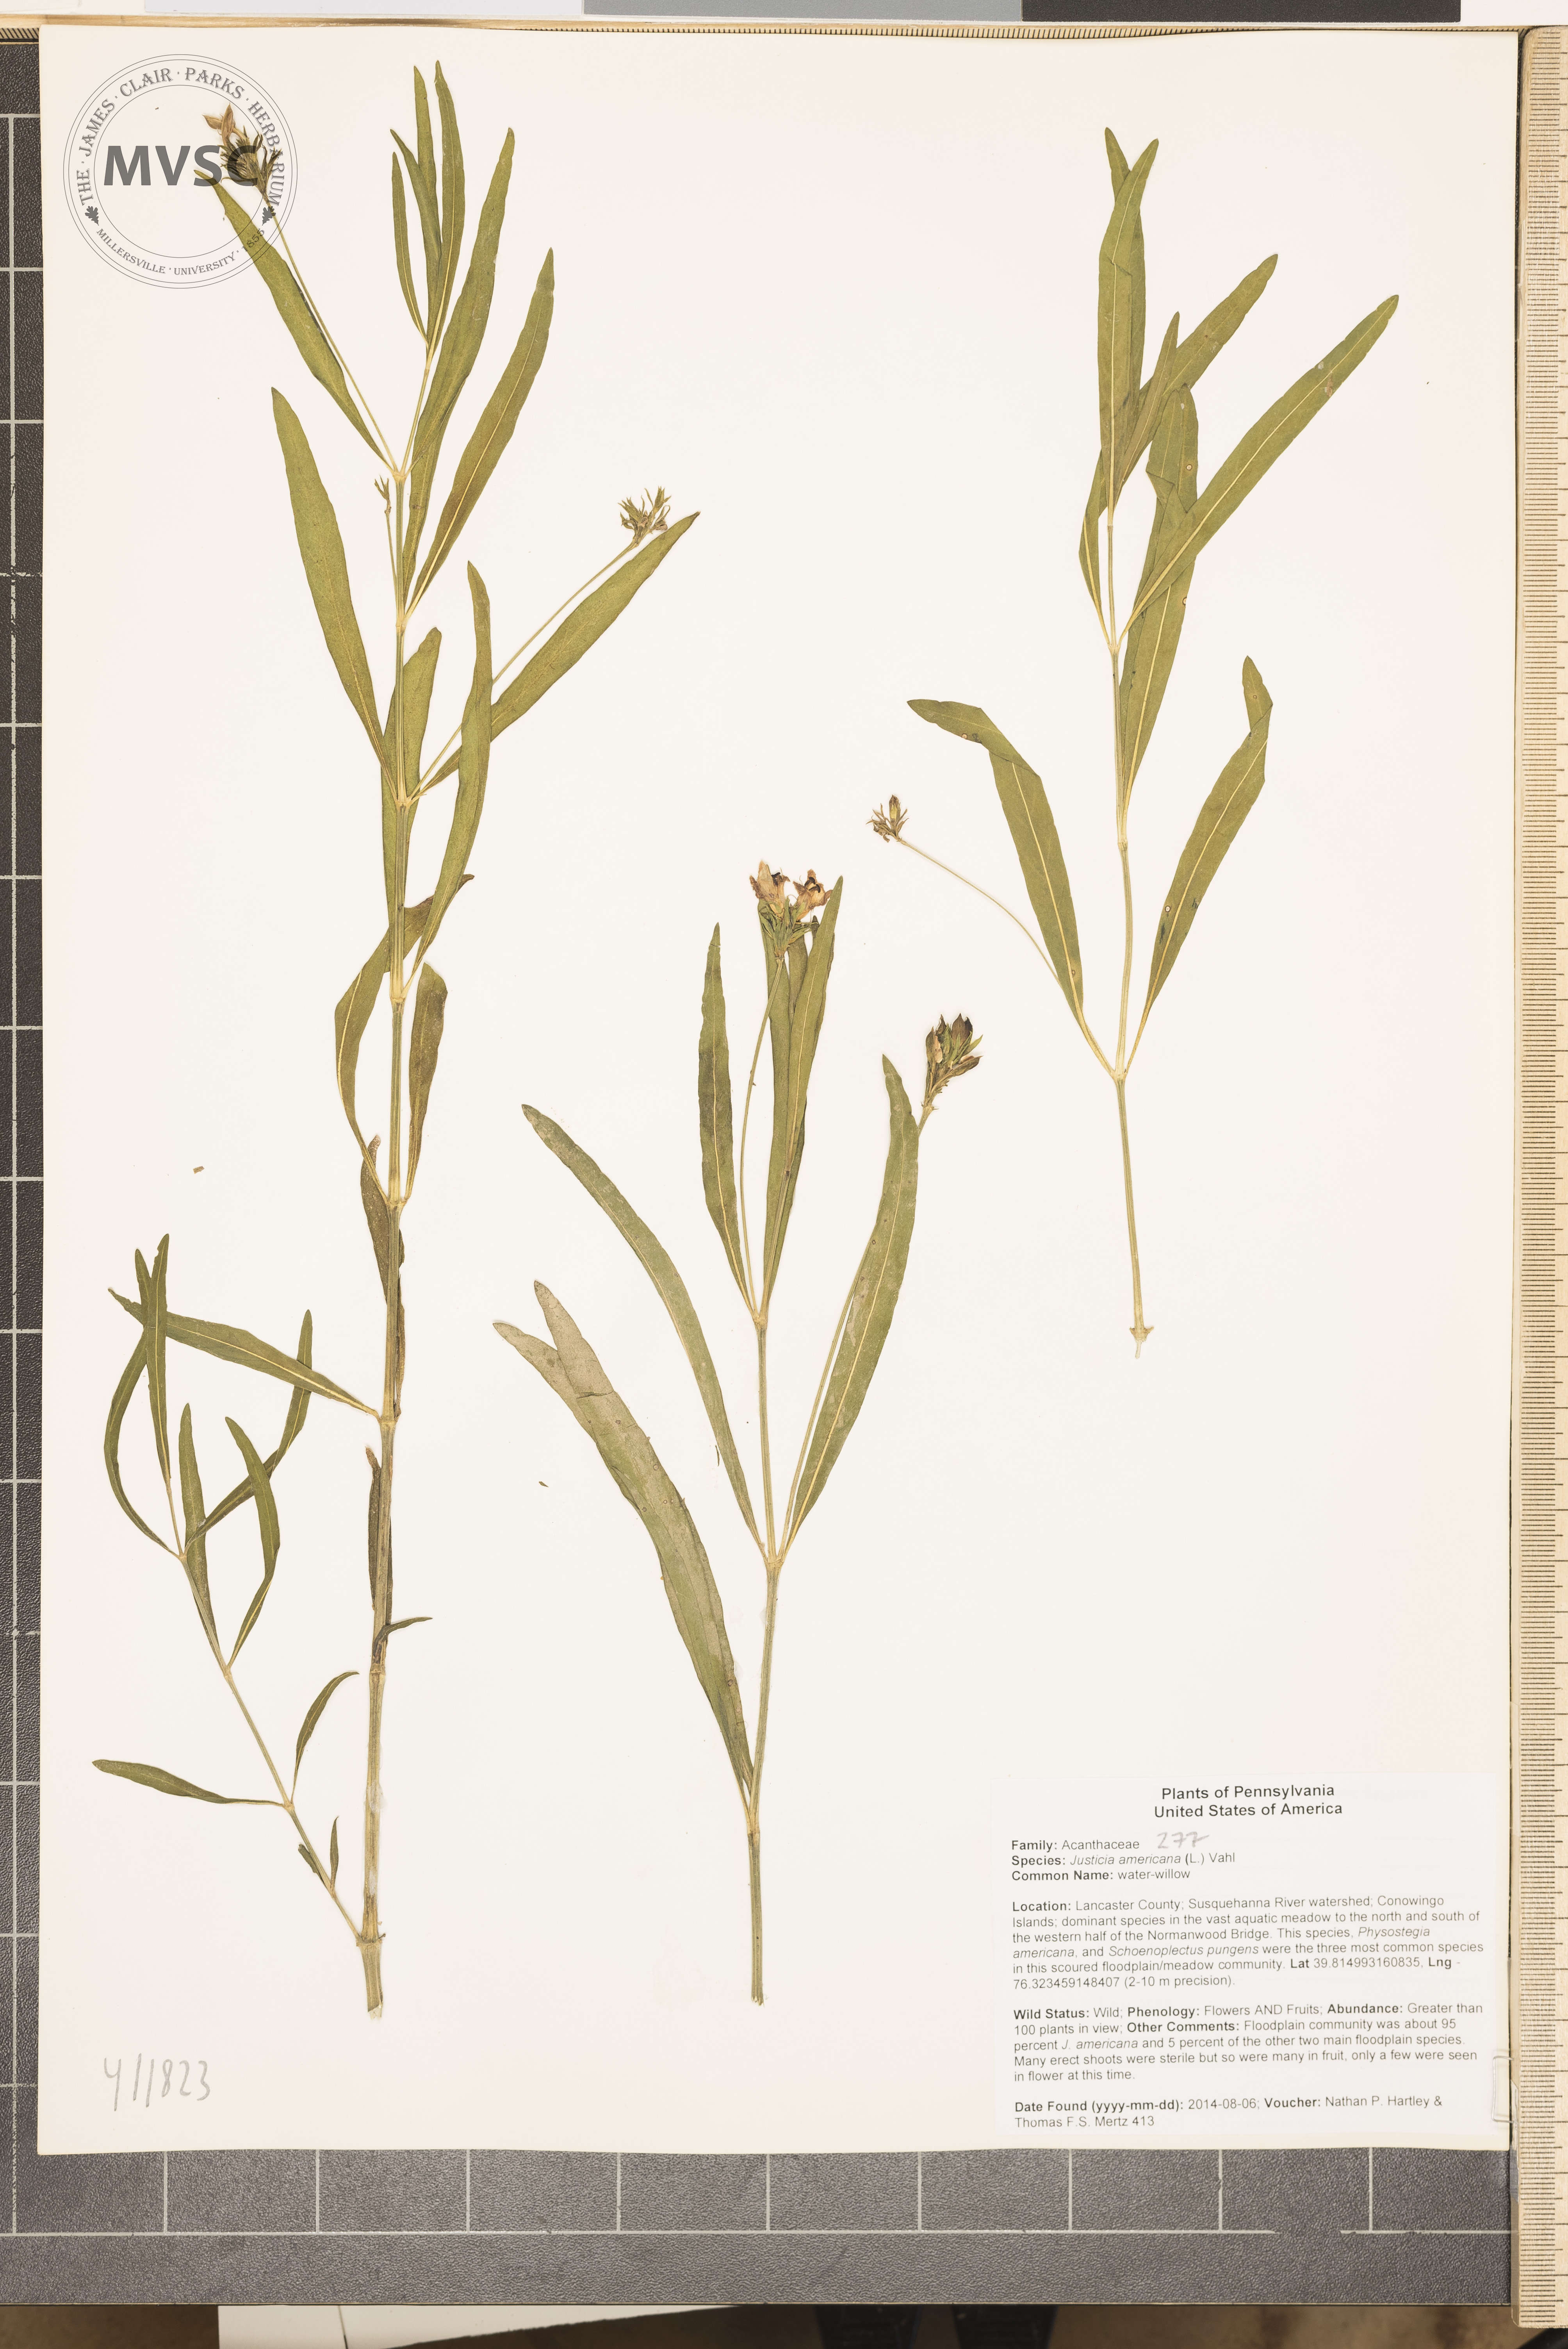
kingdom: Plantae
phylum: Tracheophyta
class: Magnoliopsida
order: Lamiales
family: Acanthaceae
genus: Dianthera
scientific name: Dianthera americana
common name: water-willow
